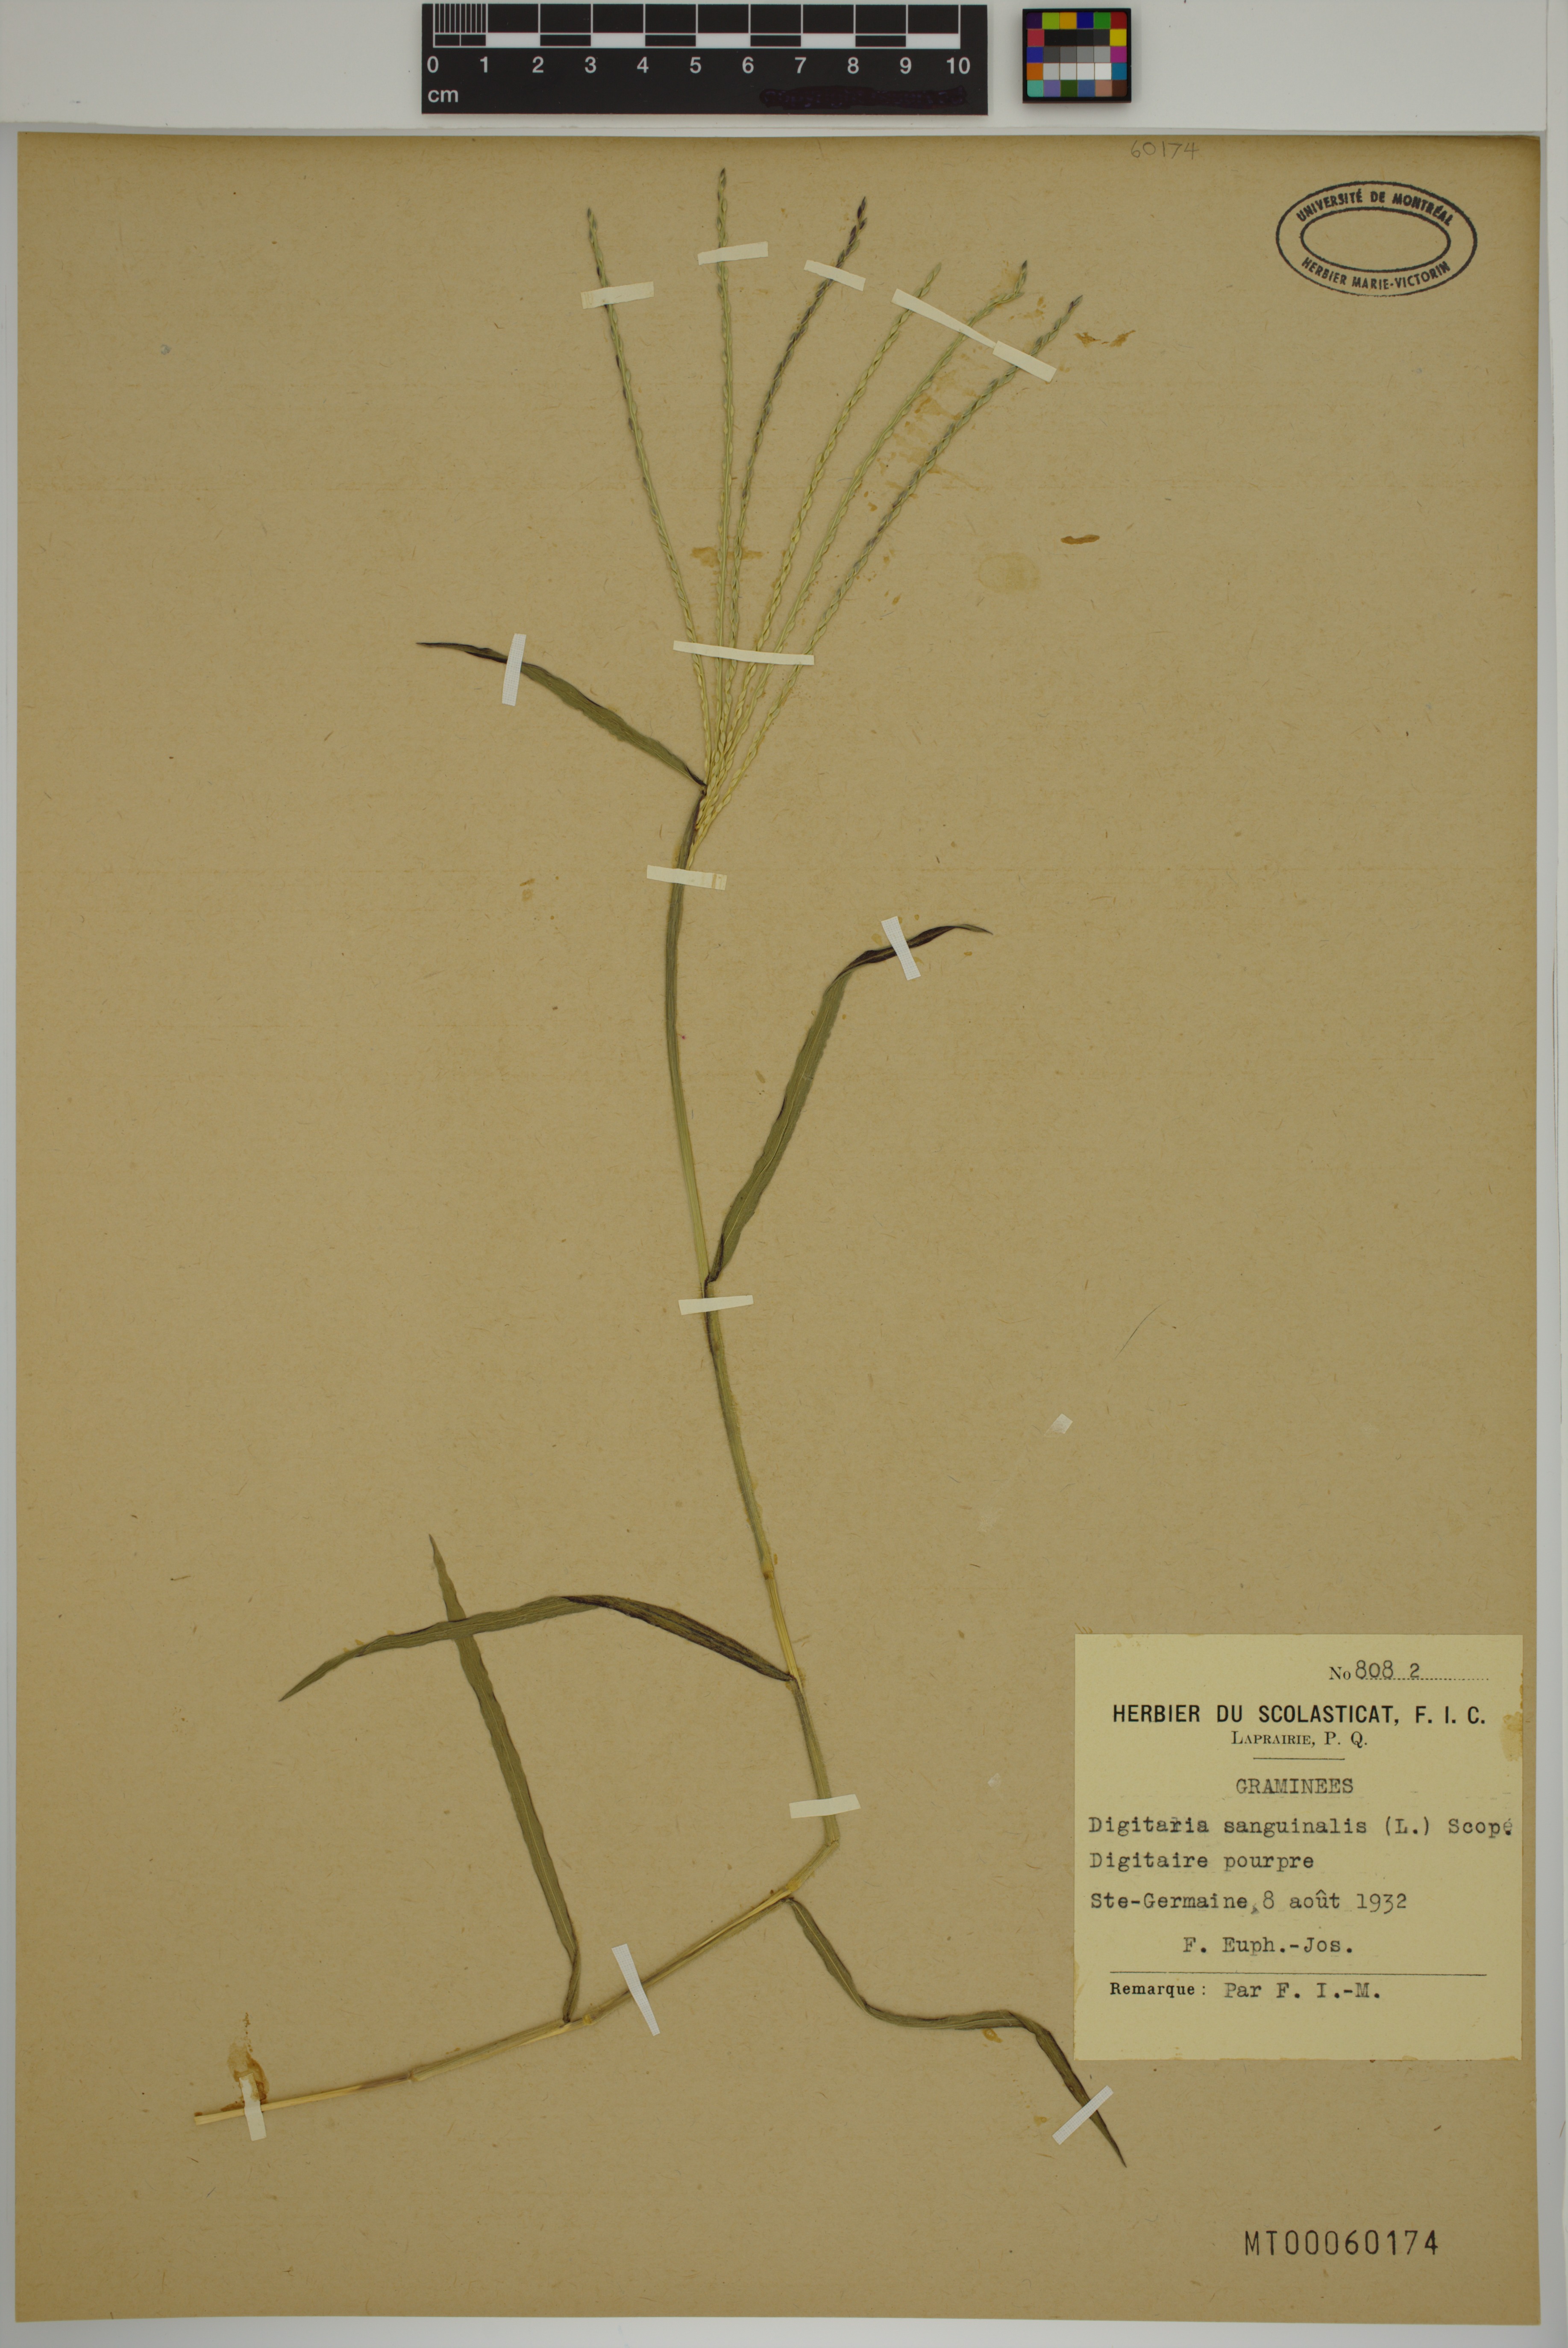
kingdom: Plantae
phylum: Tracheophyta
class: Liliopsida
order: Poales
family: Poaceae
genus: Digitaria
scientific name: Digitaria sanguinalis
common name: Hairy crabgrass
